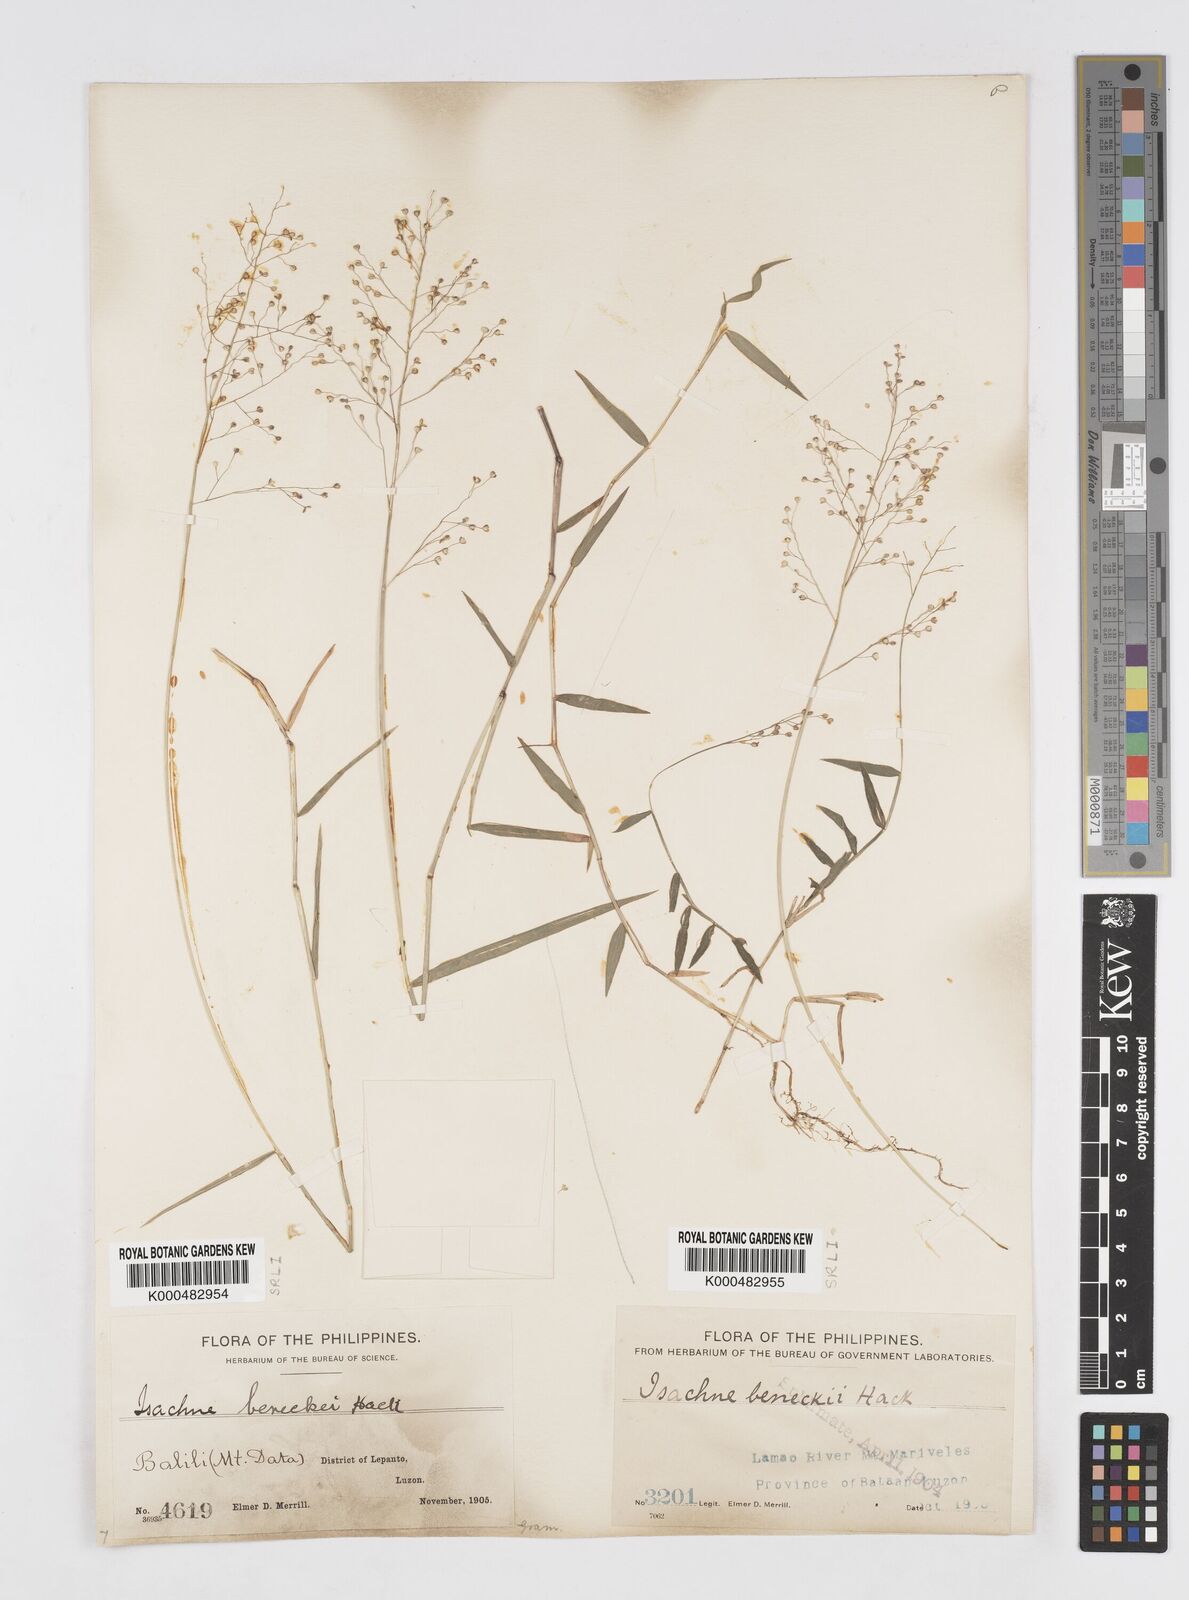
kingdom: Plantae
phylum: Tracheophyta
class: Liliopsida
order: Poales
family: Poaceae
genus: Isachne
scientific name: Isachne clarkei
